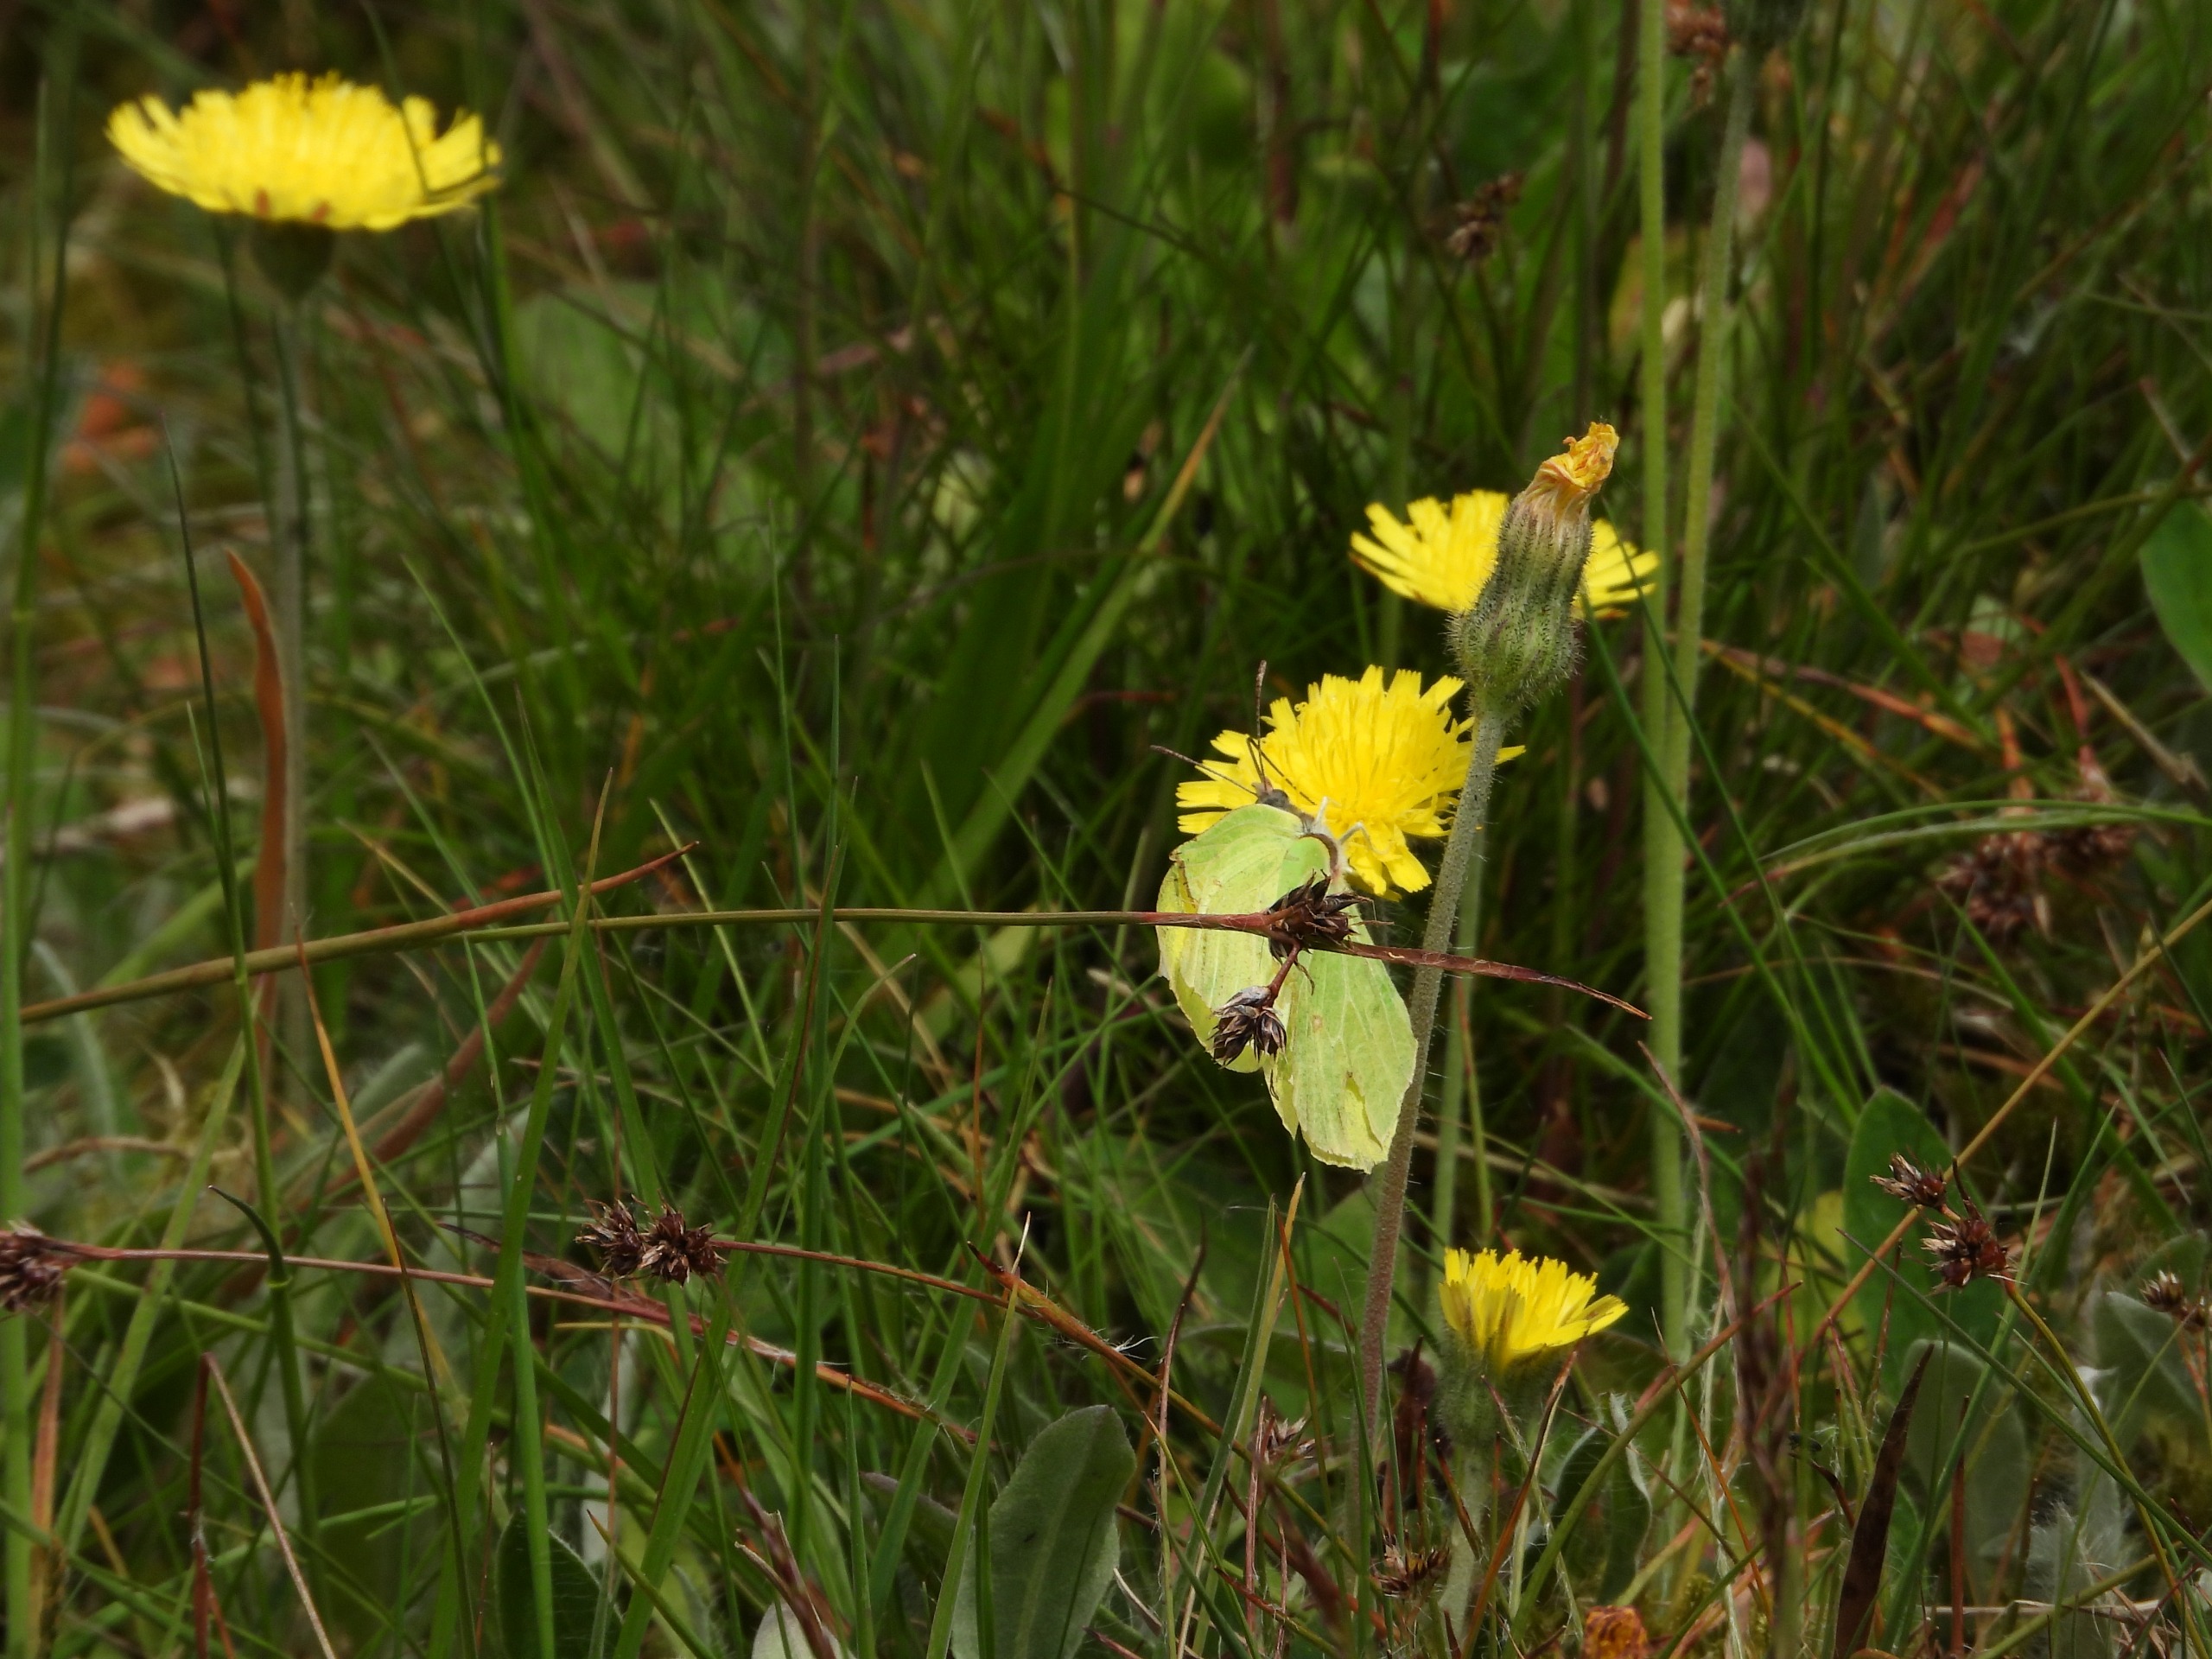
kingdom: Animalia
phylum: Arthropoda
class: Insecta
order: Lepidoptera
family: Pieridae
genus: Gonepteryx
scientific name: Gonepteryx rhamni
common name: Citronsommerfugl
